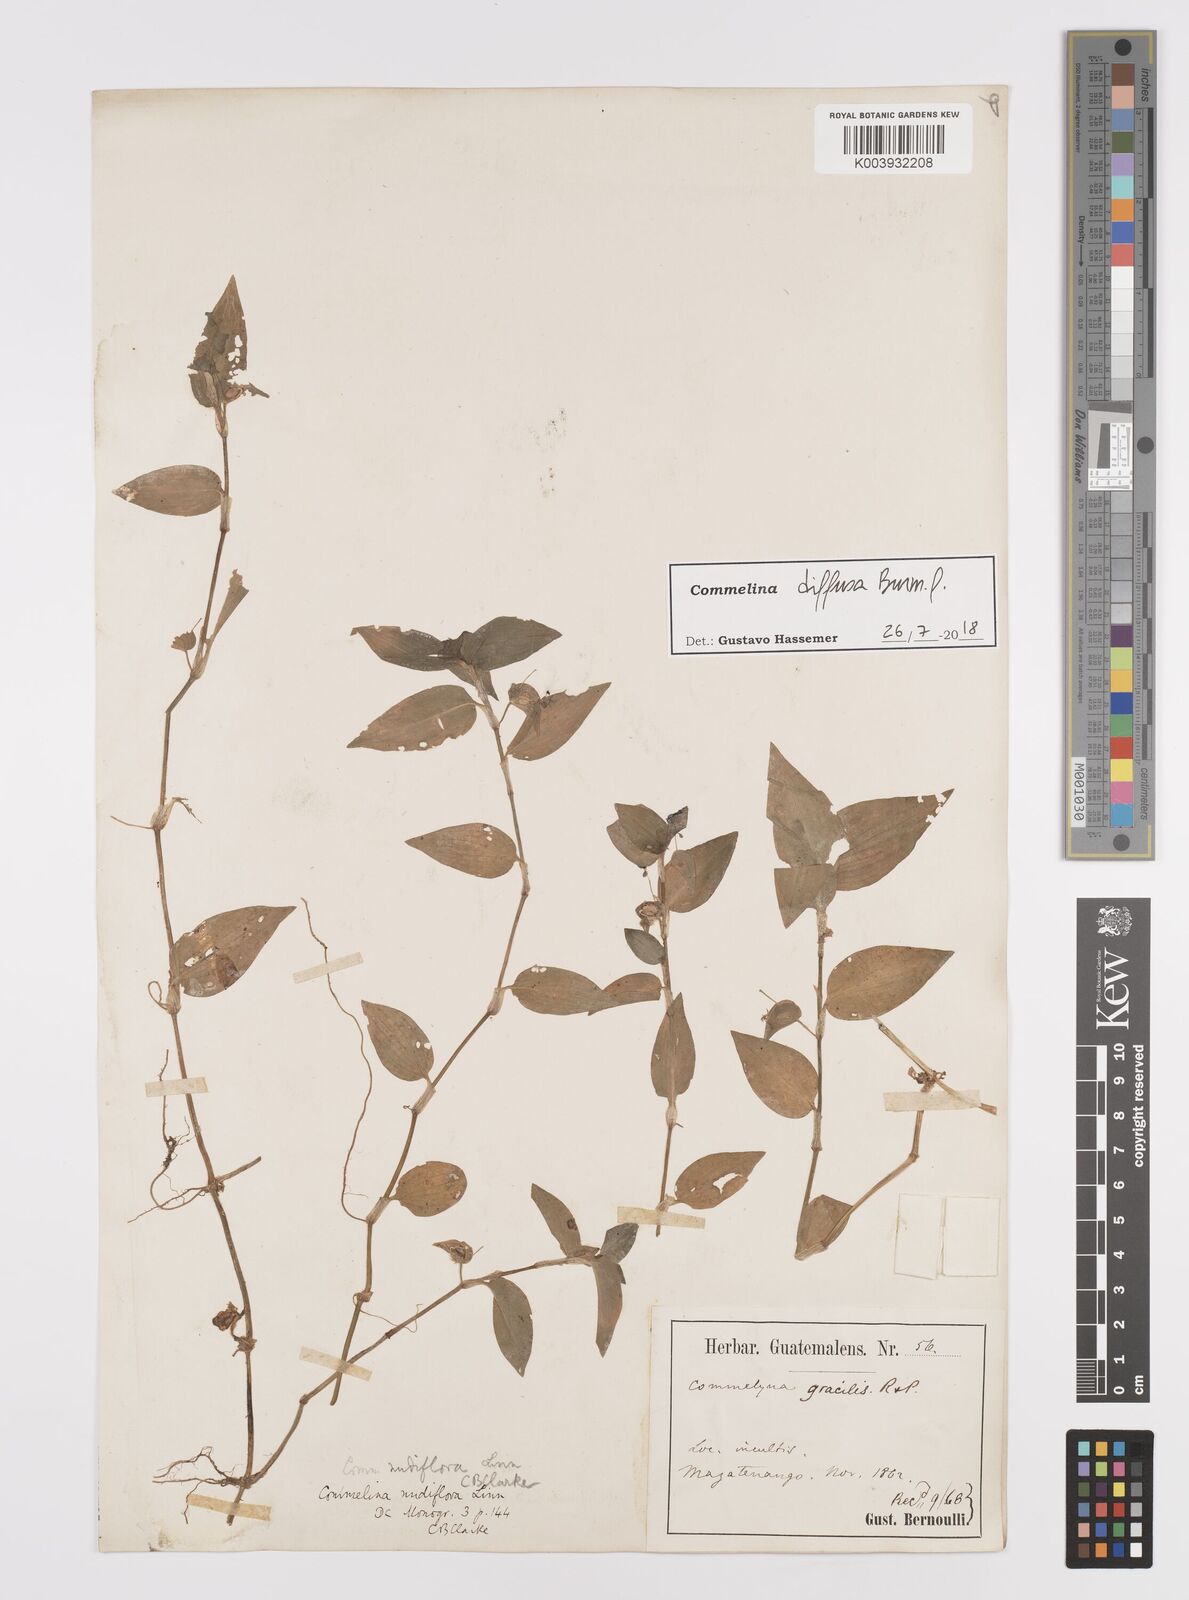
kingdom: Plantae
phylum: Tracheophyta
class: Liliopsida
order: Commelinales
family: Commelinaceae
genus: Commelina
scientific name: Commelina diffusa
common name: Climbing dayflower
